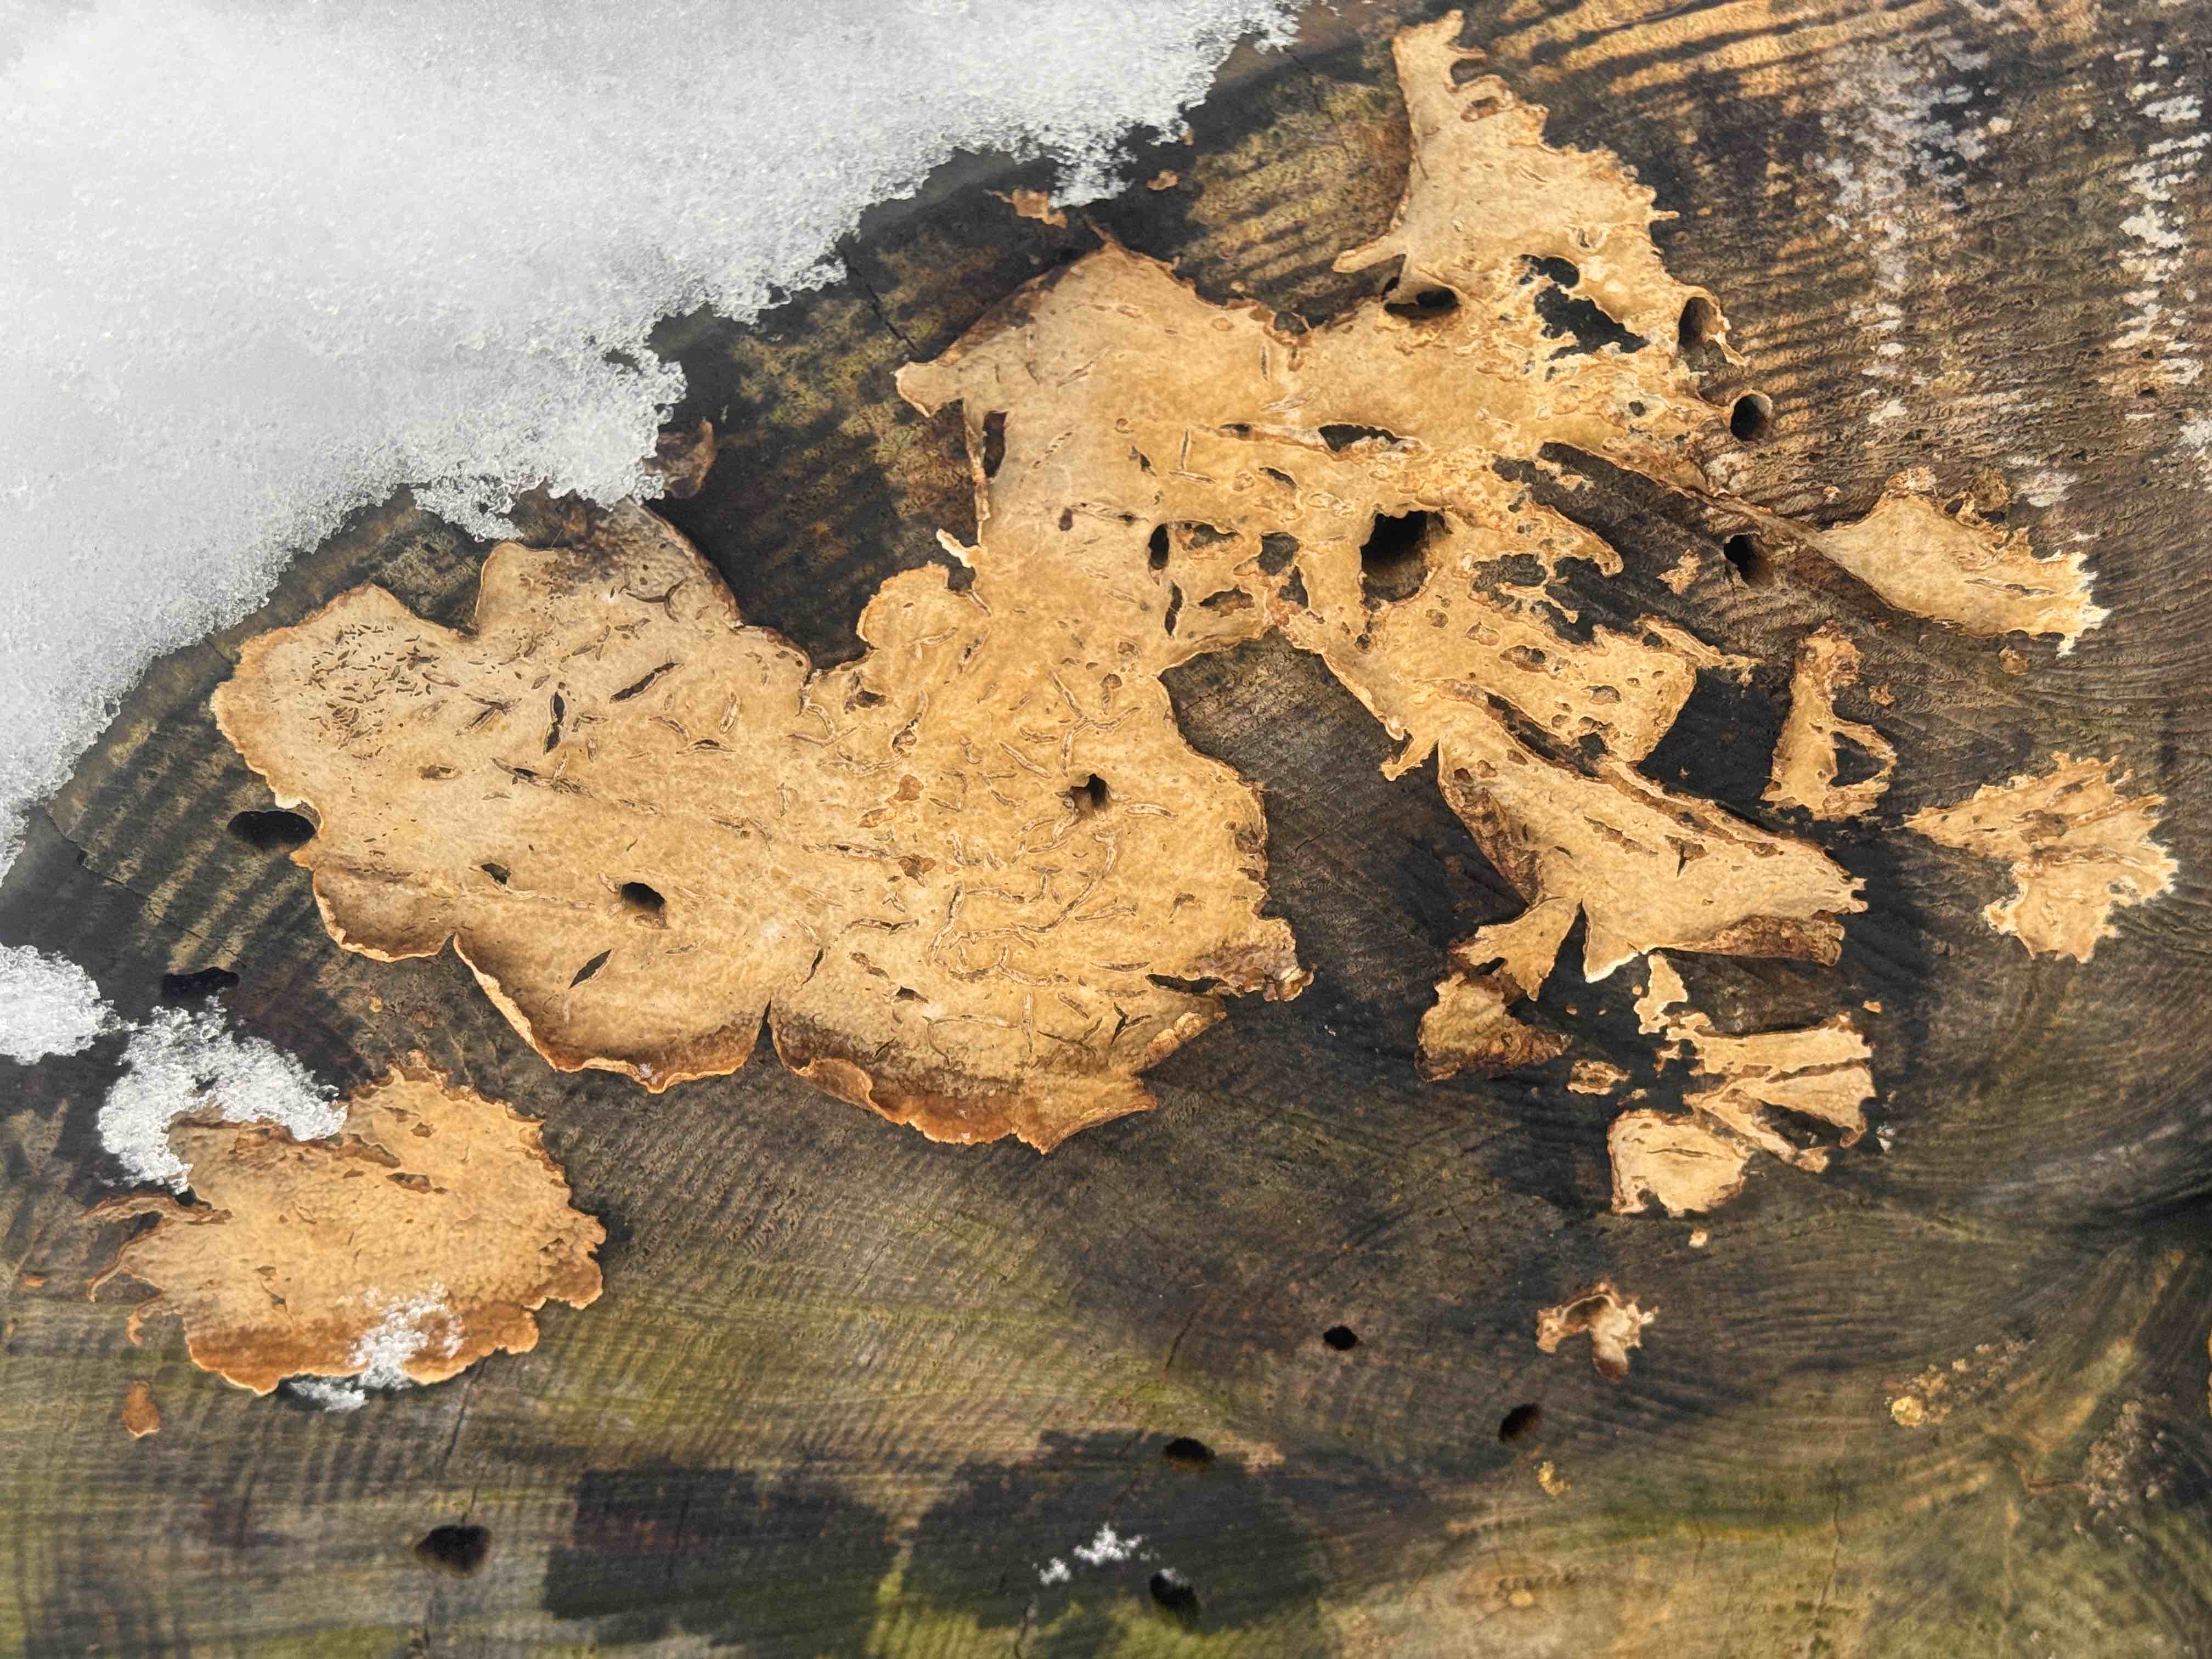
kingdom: Fungi
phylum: Basidiomycota
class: Agaricomycetes
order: Agaricales
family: Physalacriaceae
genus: Cylindrobasidium
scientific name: Cylindrobasidium evolvens
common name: sprækkehinde
